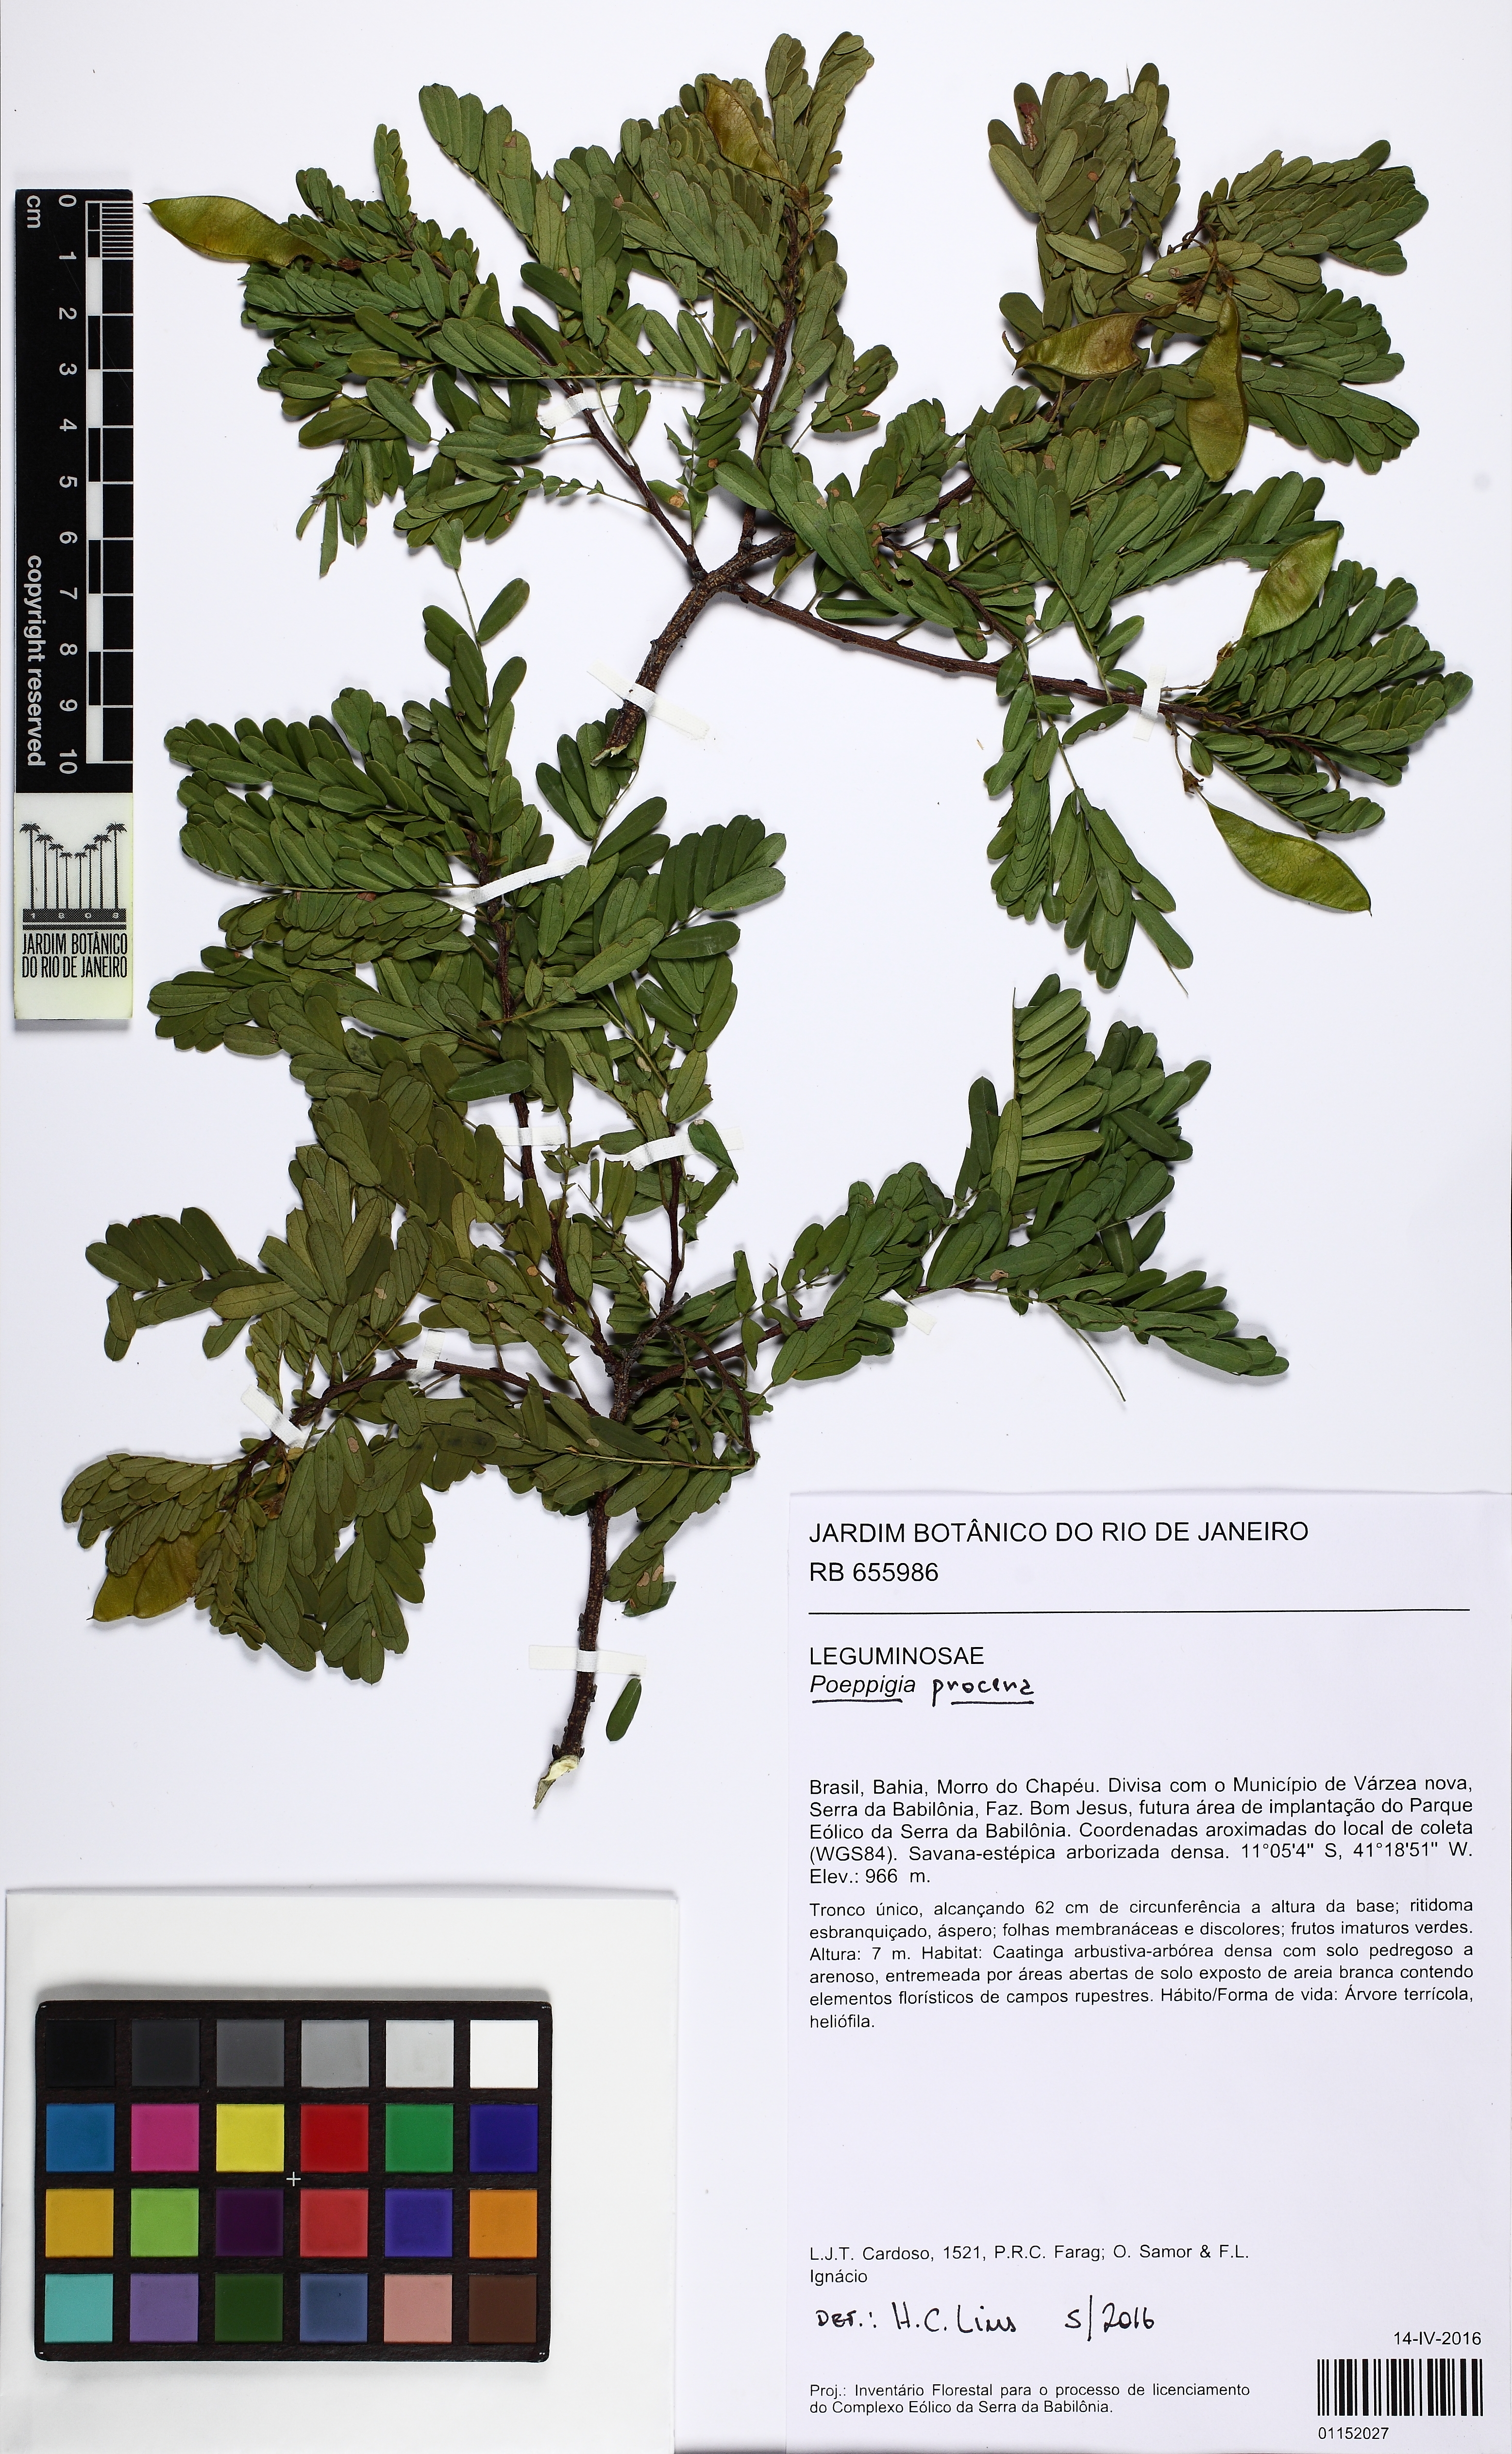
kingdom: Plantae
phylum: Tracheophyta
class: Magnoliopsida
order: Fabales
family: Fabaceae
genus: Poeppigia
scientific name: Poeppigia densiflora
